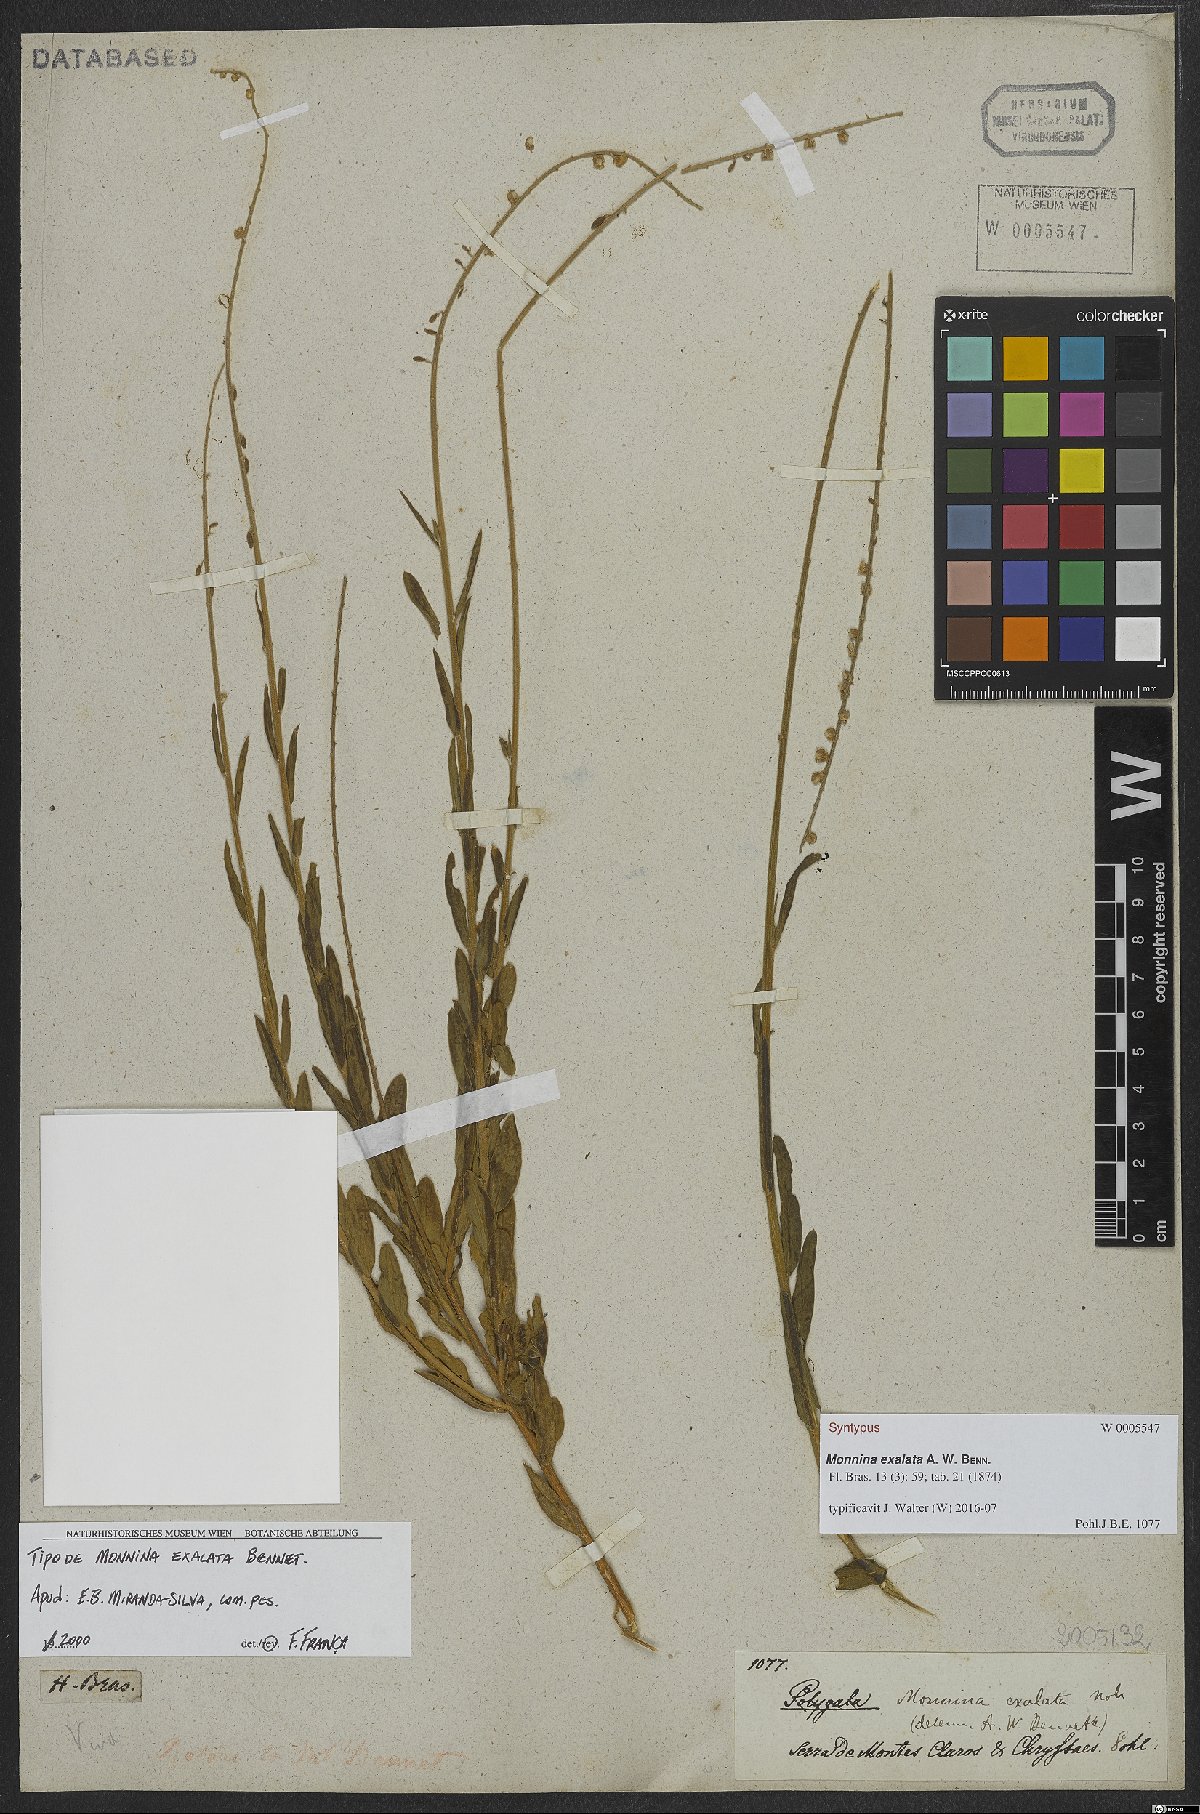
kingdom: Plantae
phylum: Tracheophyta
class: Magnoliopsida
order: Fabales
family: Polygalaceae
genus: Monnina
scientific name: Monnina exalata
